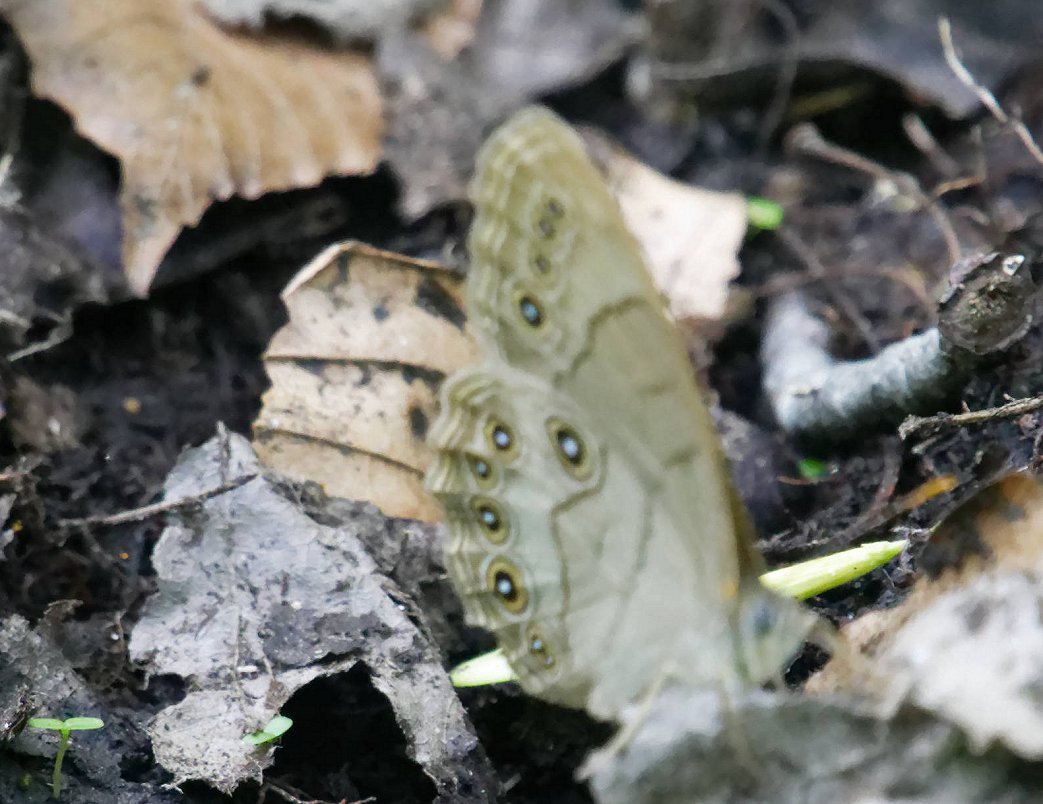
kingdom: Animalia
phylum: Arthropoda
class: Insecta
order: Lepidoptera
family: Nymphalidae
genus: Lethe
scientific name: Lethe eurydice
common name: Appalachian Eyed Brown
